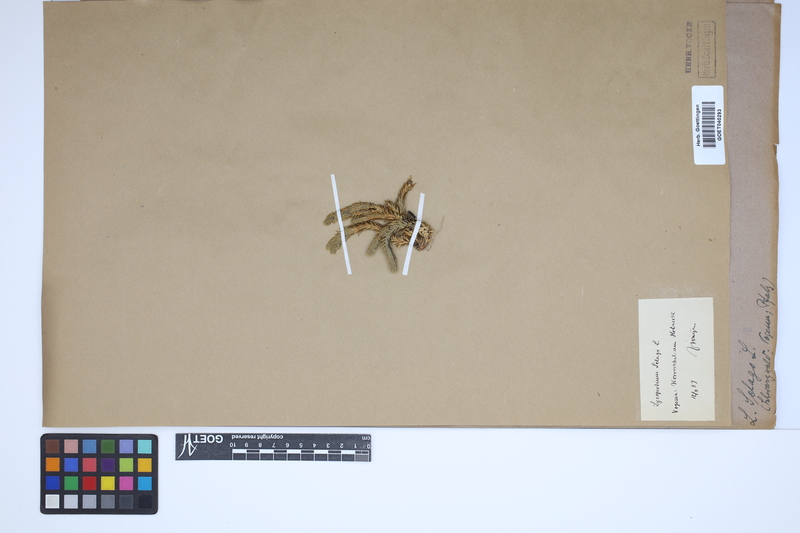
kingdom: Plantae
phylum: Tracheophyta
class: Lycopodiopsida
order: Lycopodiales
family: Lycopodiaceae
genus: Huperzia
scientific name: Huperzia selago
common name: Northern firmoss
